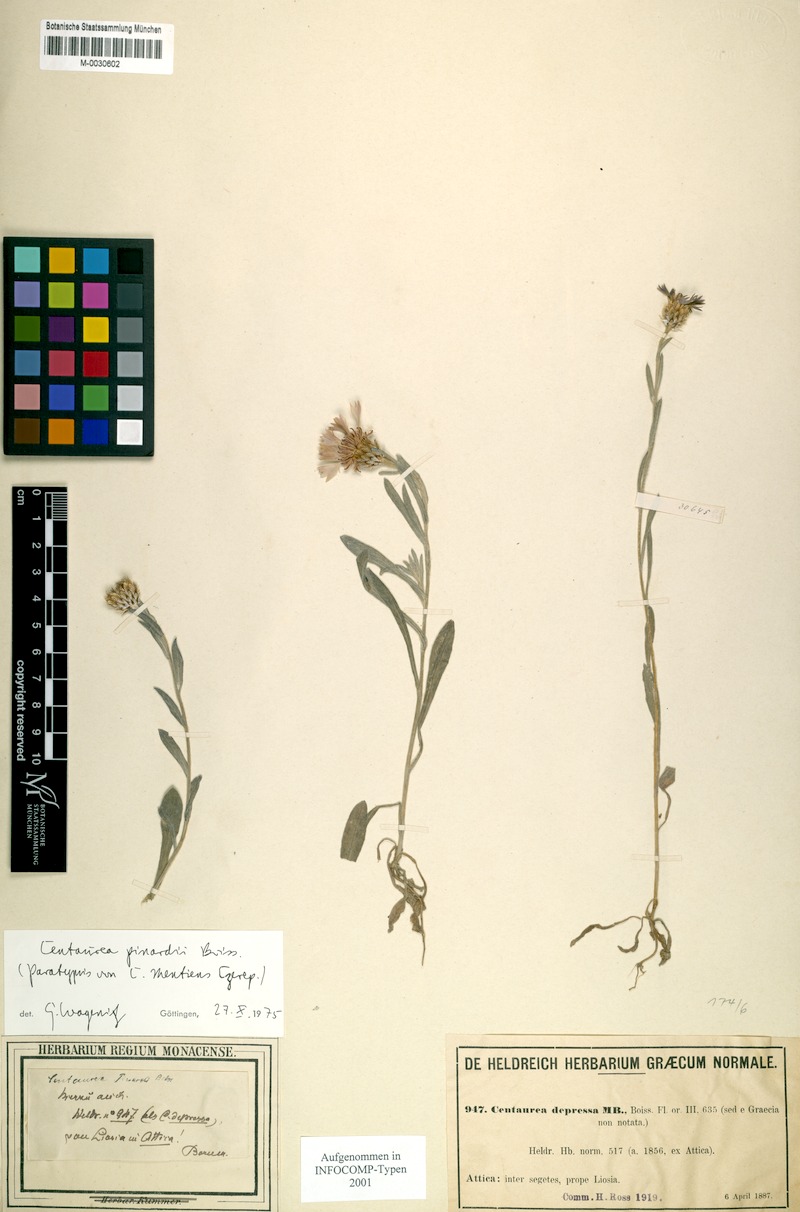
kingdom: Plantae
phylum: Tracheophyta
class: Magnoliopsida
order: Asterales
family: Asteraceae
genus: Centaurea
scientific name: Centaurea pinardii
